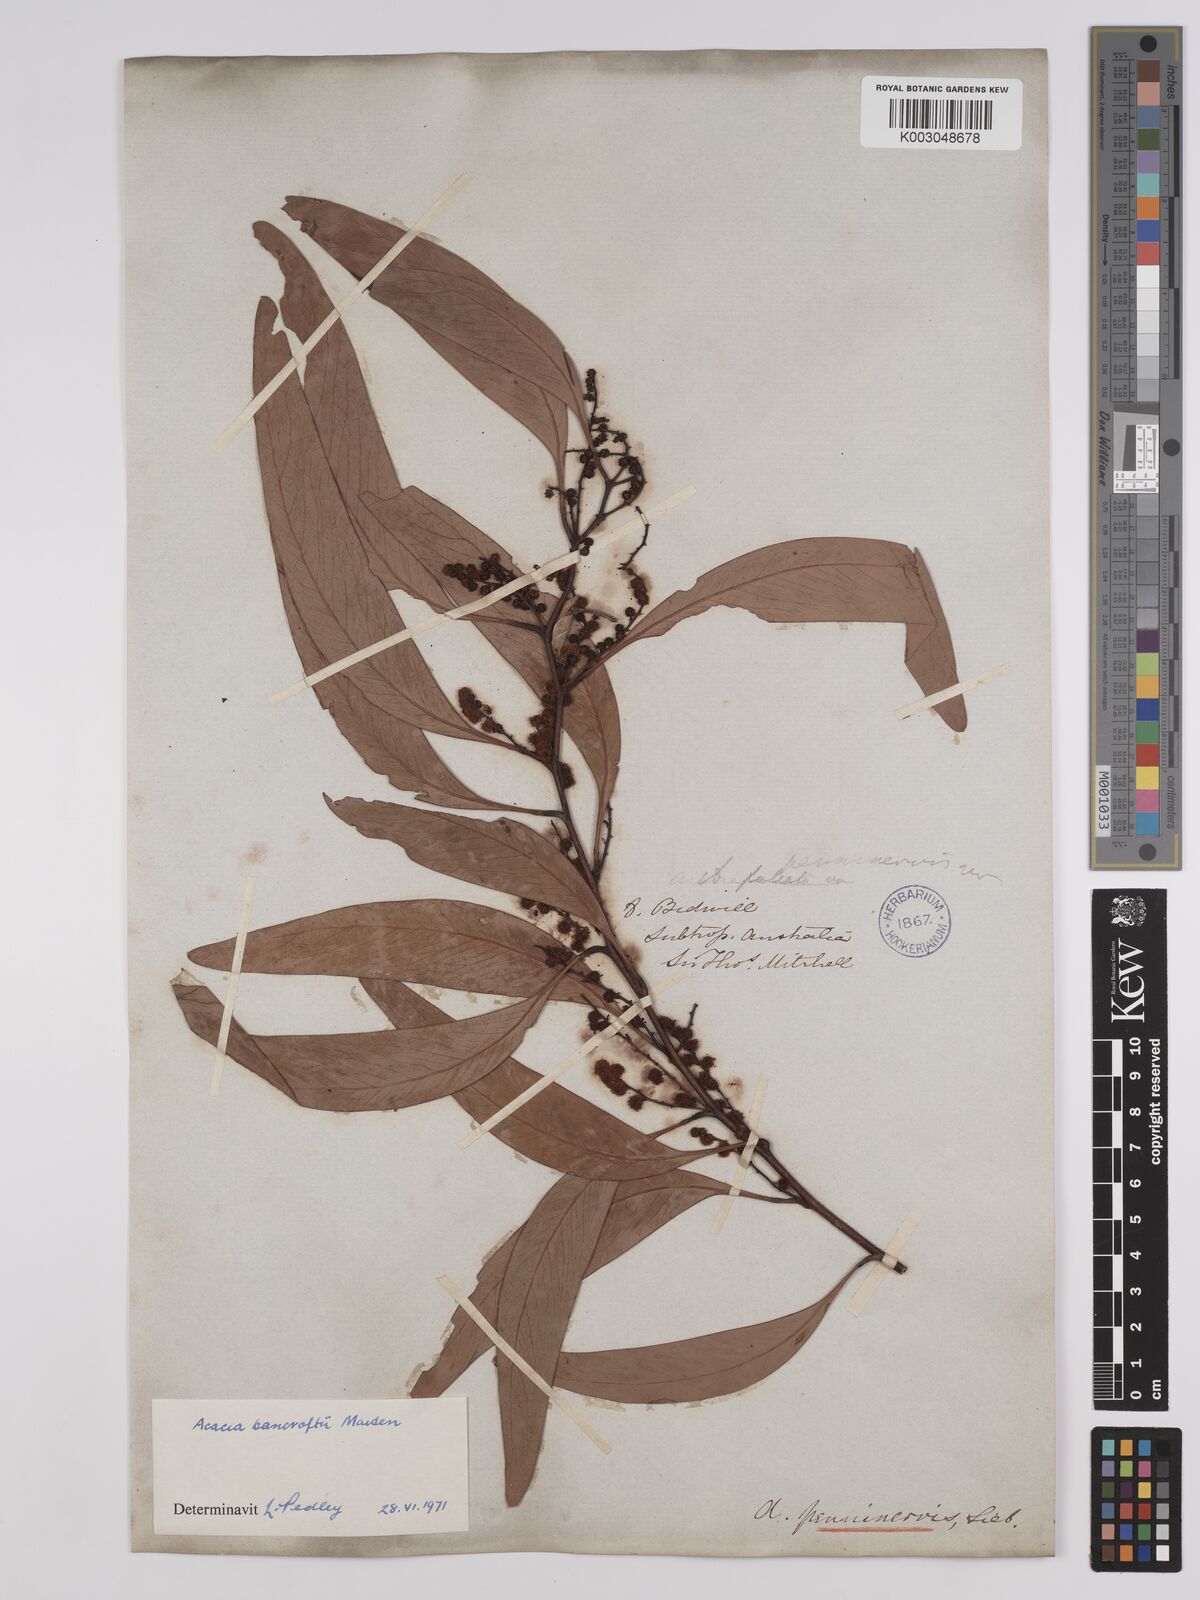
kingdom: Plantae
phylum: Tracheophyta
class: Magnoliopsida
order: Fabales
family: Fabaceae
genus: Acacia
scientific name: Acacia
